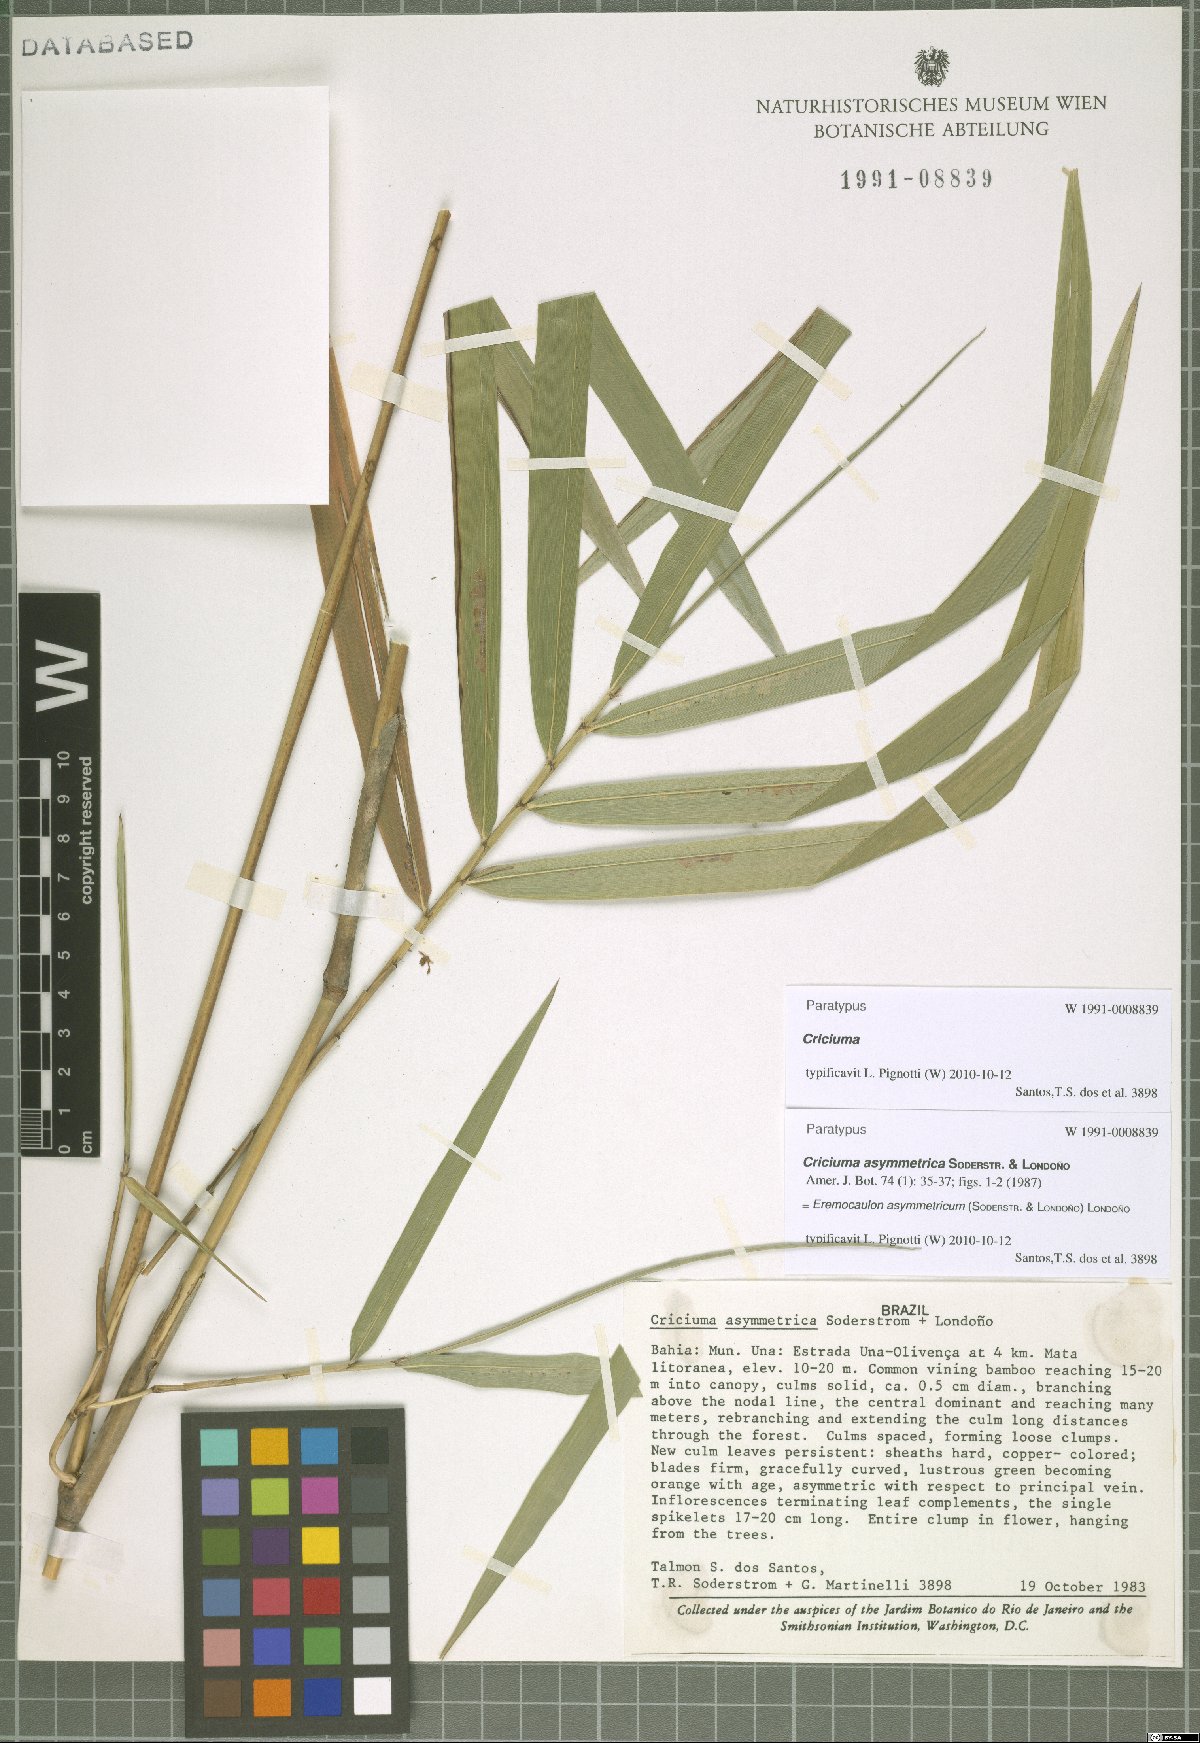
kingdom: Plantae
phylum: Tracheophyta
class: Liliopsida
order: Poales
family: Poaceae
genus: Eremocaulon
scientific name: Eremocaulon asymmetricum
